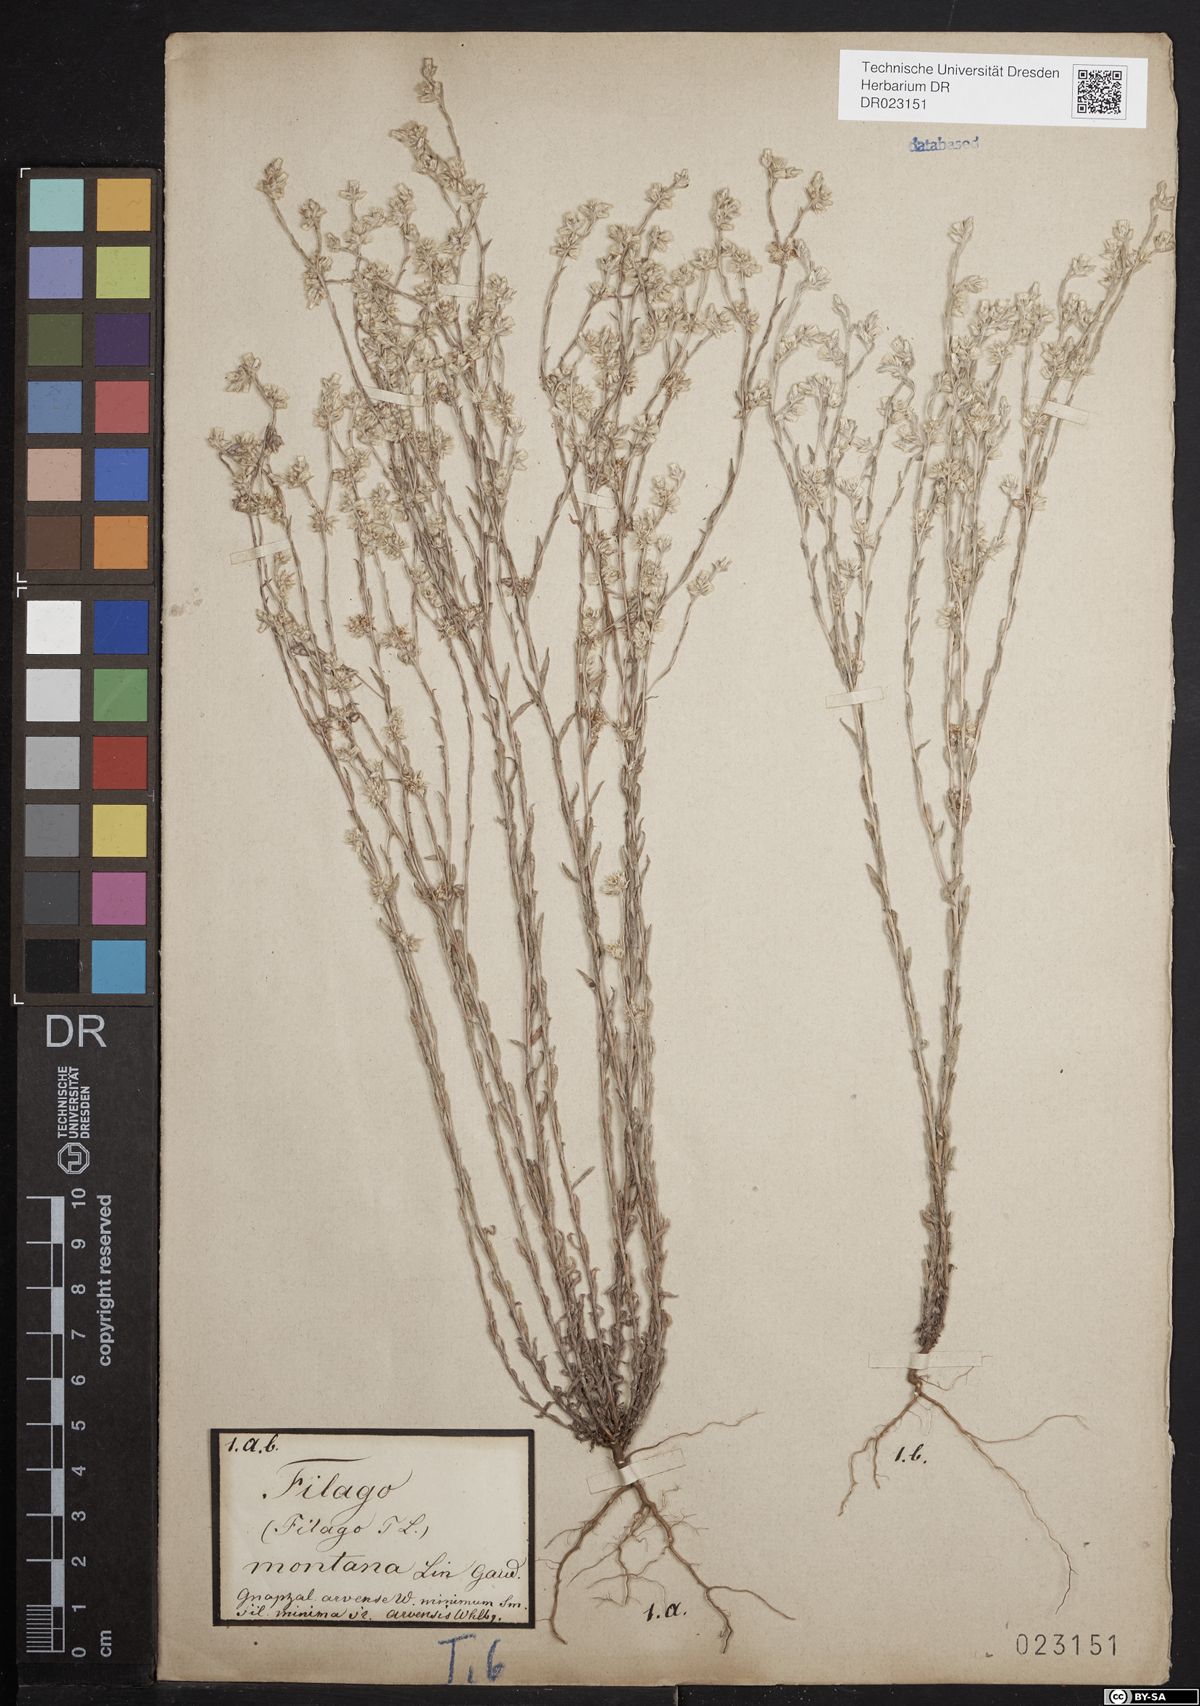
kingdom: Plantae
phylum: Tracheophyta
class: Magnoliopsida
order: Asterales
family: Asteraceae
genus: Logfia
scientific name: Logfia minima
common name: Little cottonrose
